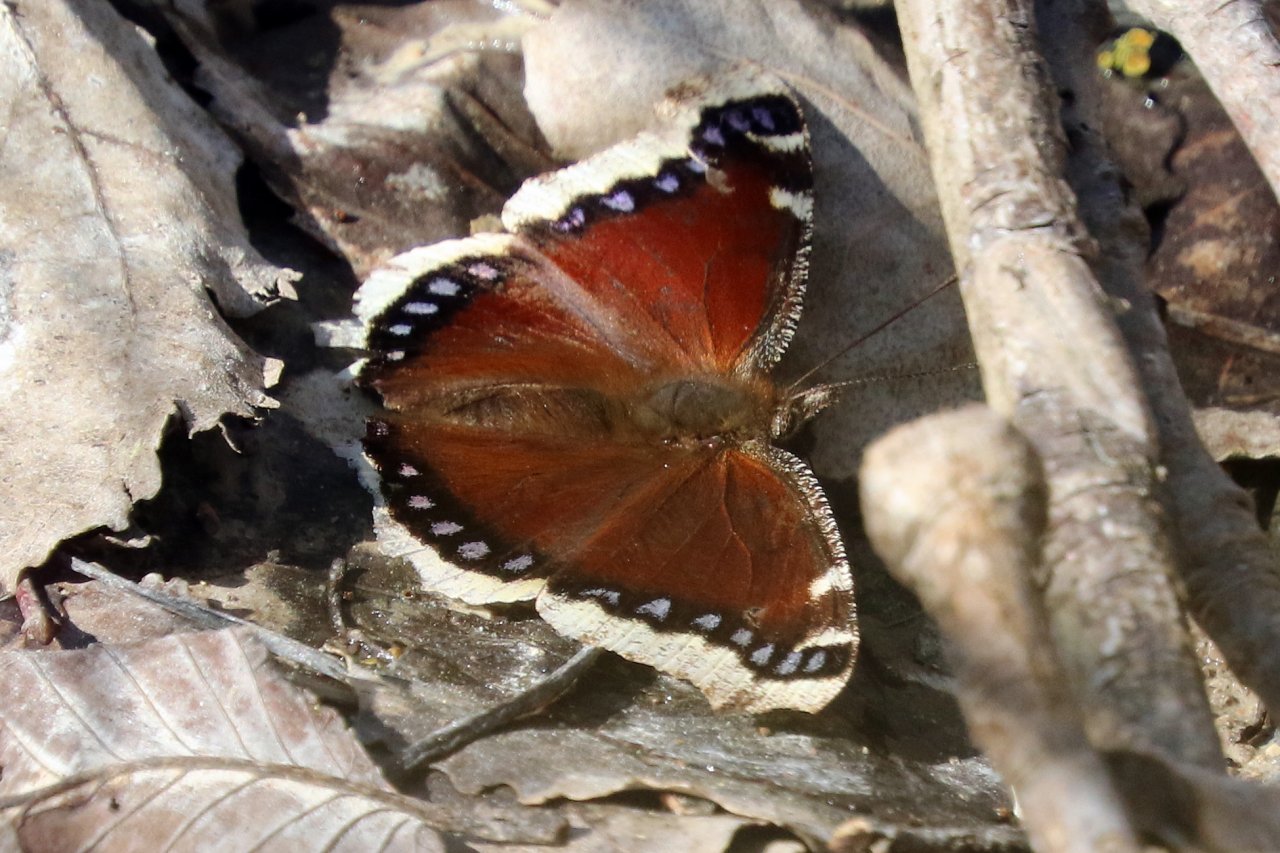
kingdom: Animalia
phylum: Arthropoda
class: Insecta
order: Lepidoptera
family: Nymphalidae
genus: Nymphalis
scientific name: Nymphalis antiopa
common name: Mourning Cloak
